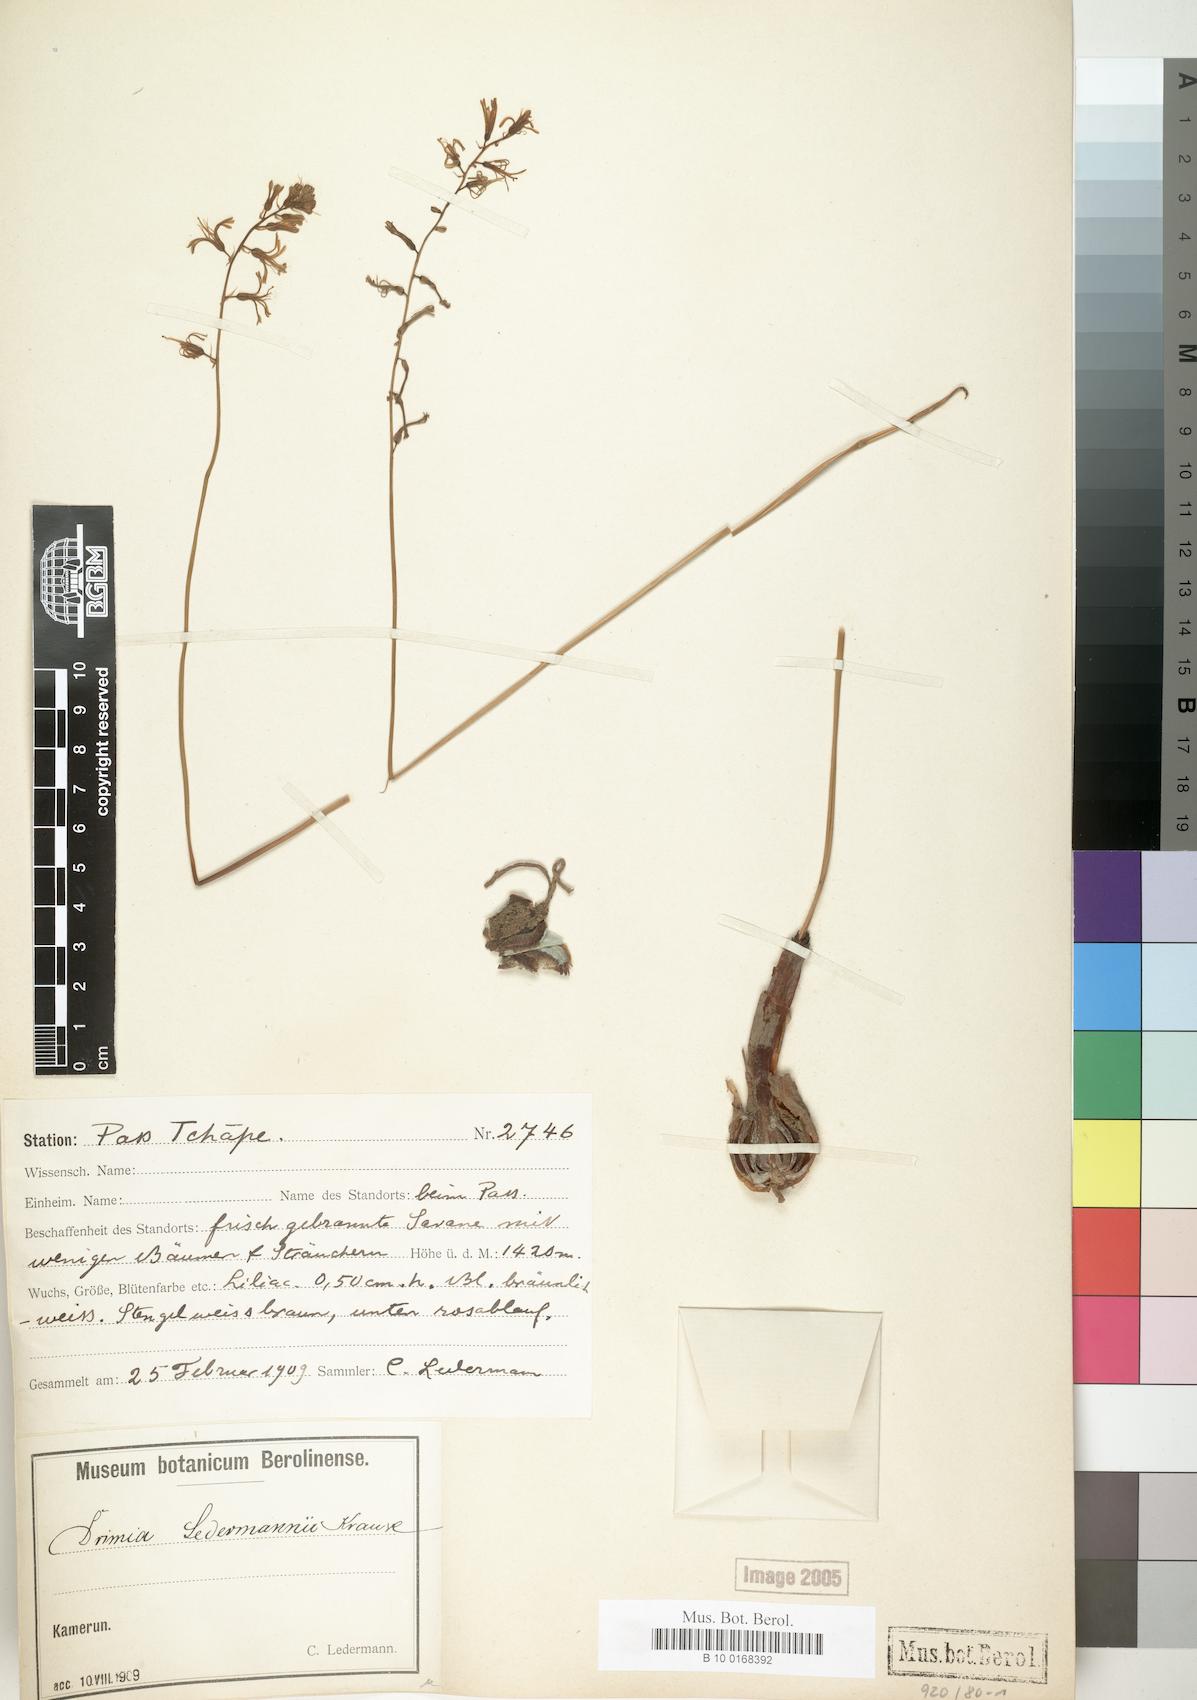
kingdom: Plantae
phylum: Tracheophyta
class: Liliopsida
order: Asparagales
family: Asparagaceae
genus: Drimia
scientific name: Drimia ledermannii
